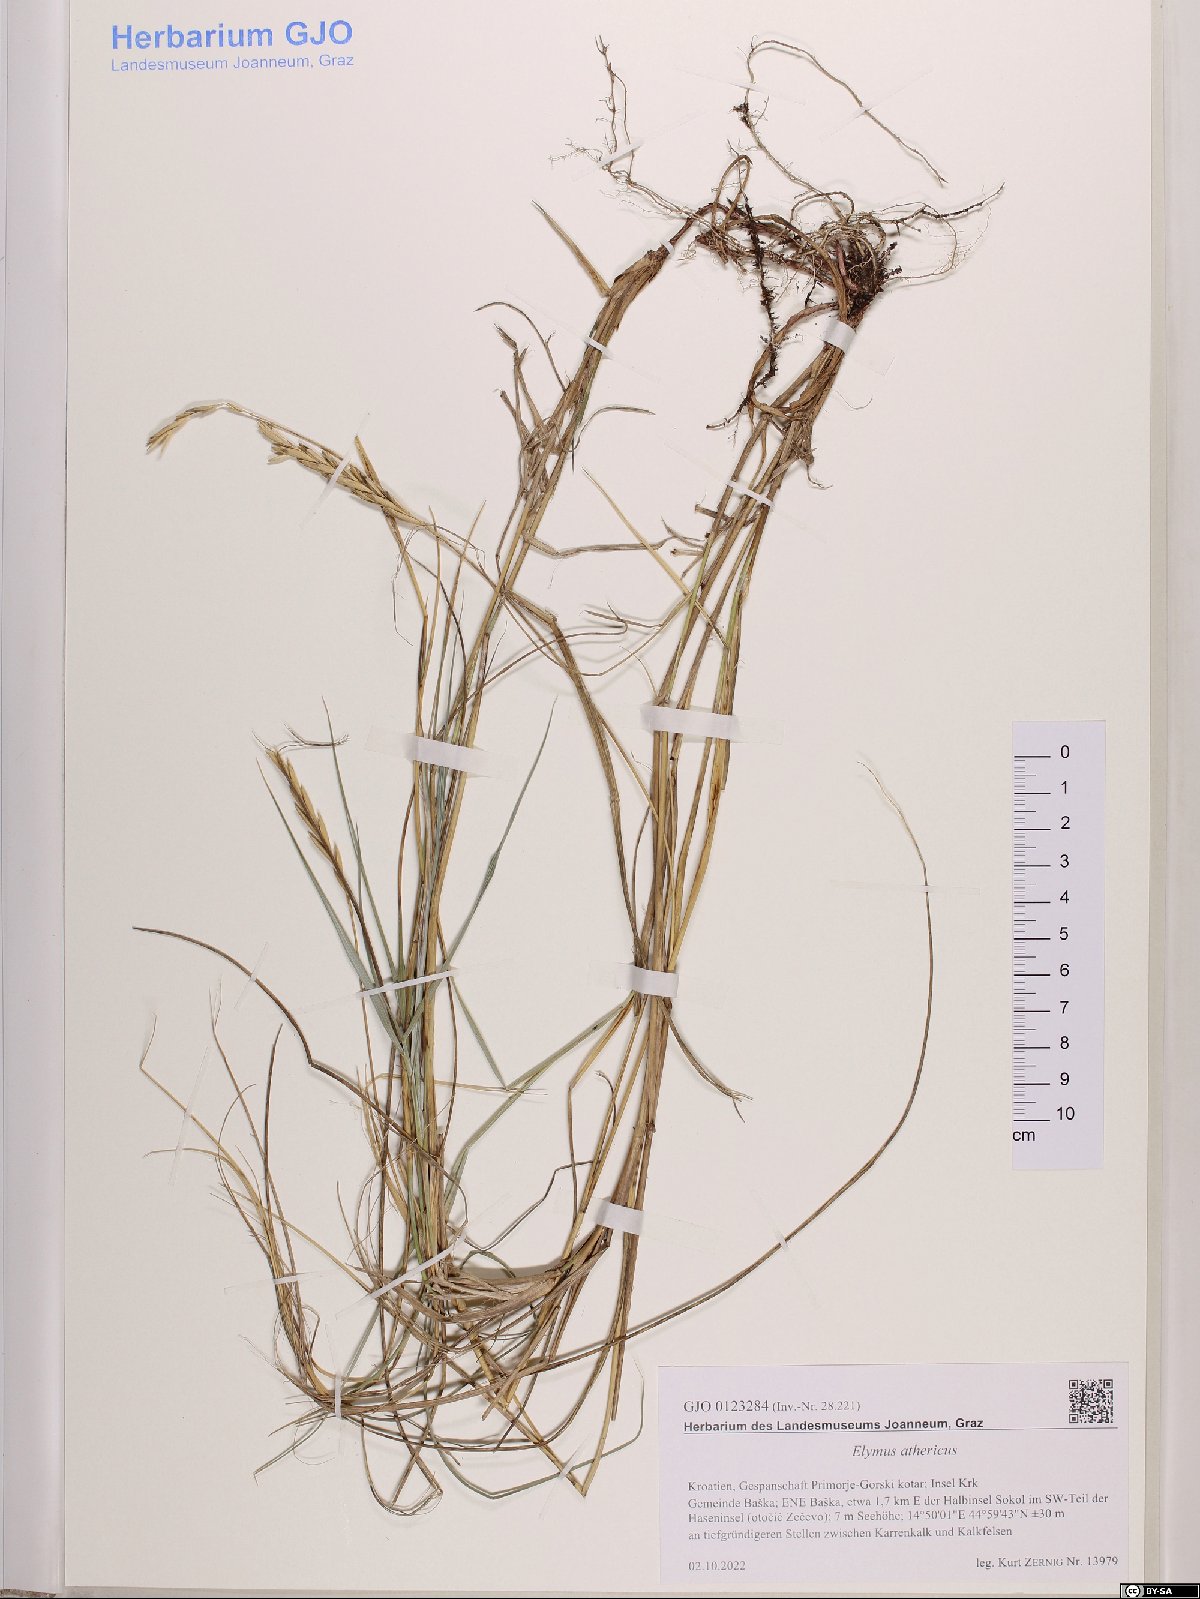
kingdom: Plantae
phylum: Tracheophyta
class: Liliopsida
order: Poales
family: Poaceae
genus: Elymus
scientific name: Elymus athericus
